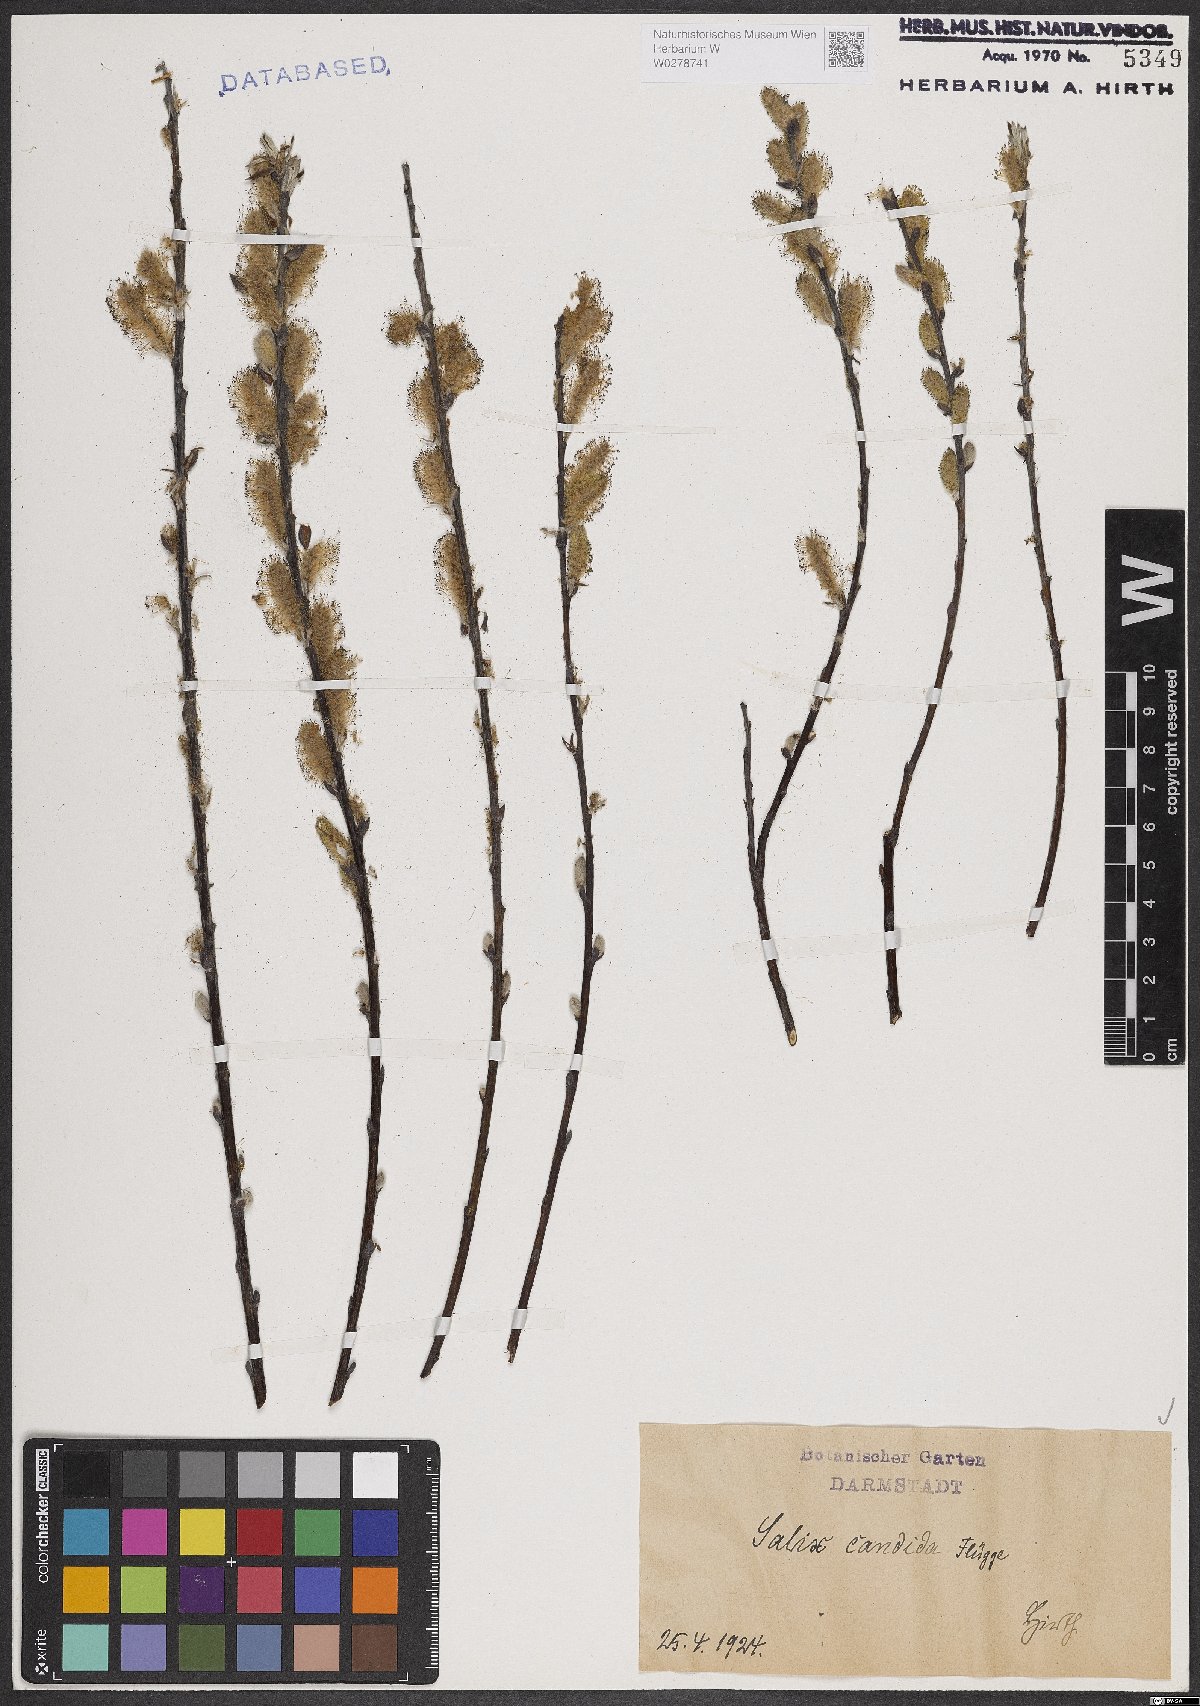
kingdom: Plantae
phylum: Tracheophyta
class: Magnoliopsida
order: Malpighiales
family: Salicaceae
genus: Salix
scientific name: Salix candida
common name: Hoary willow
